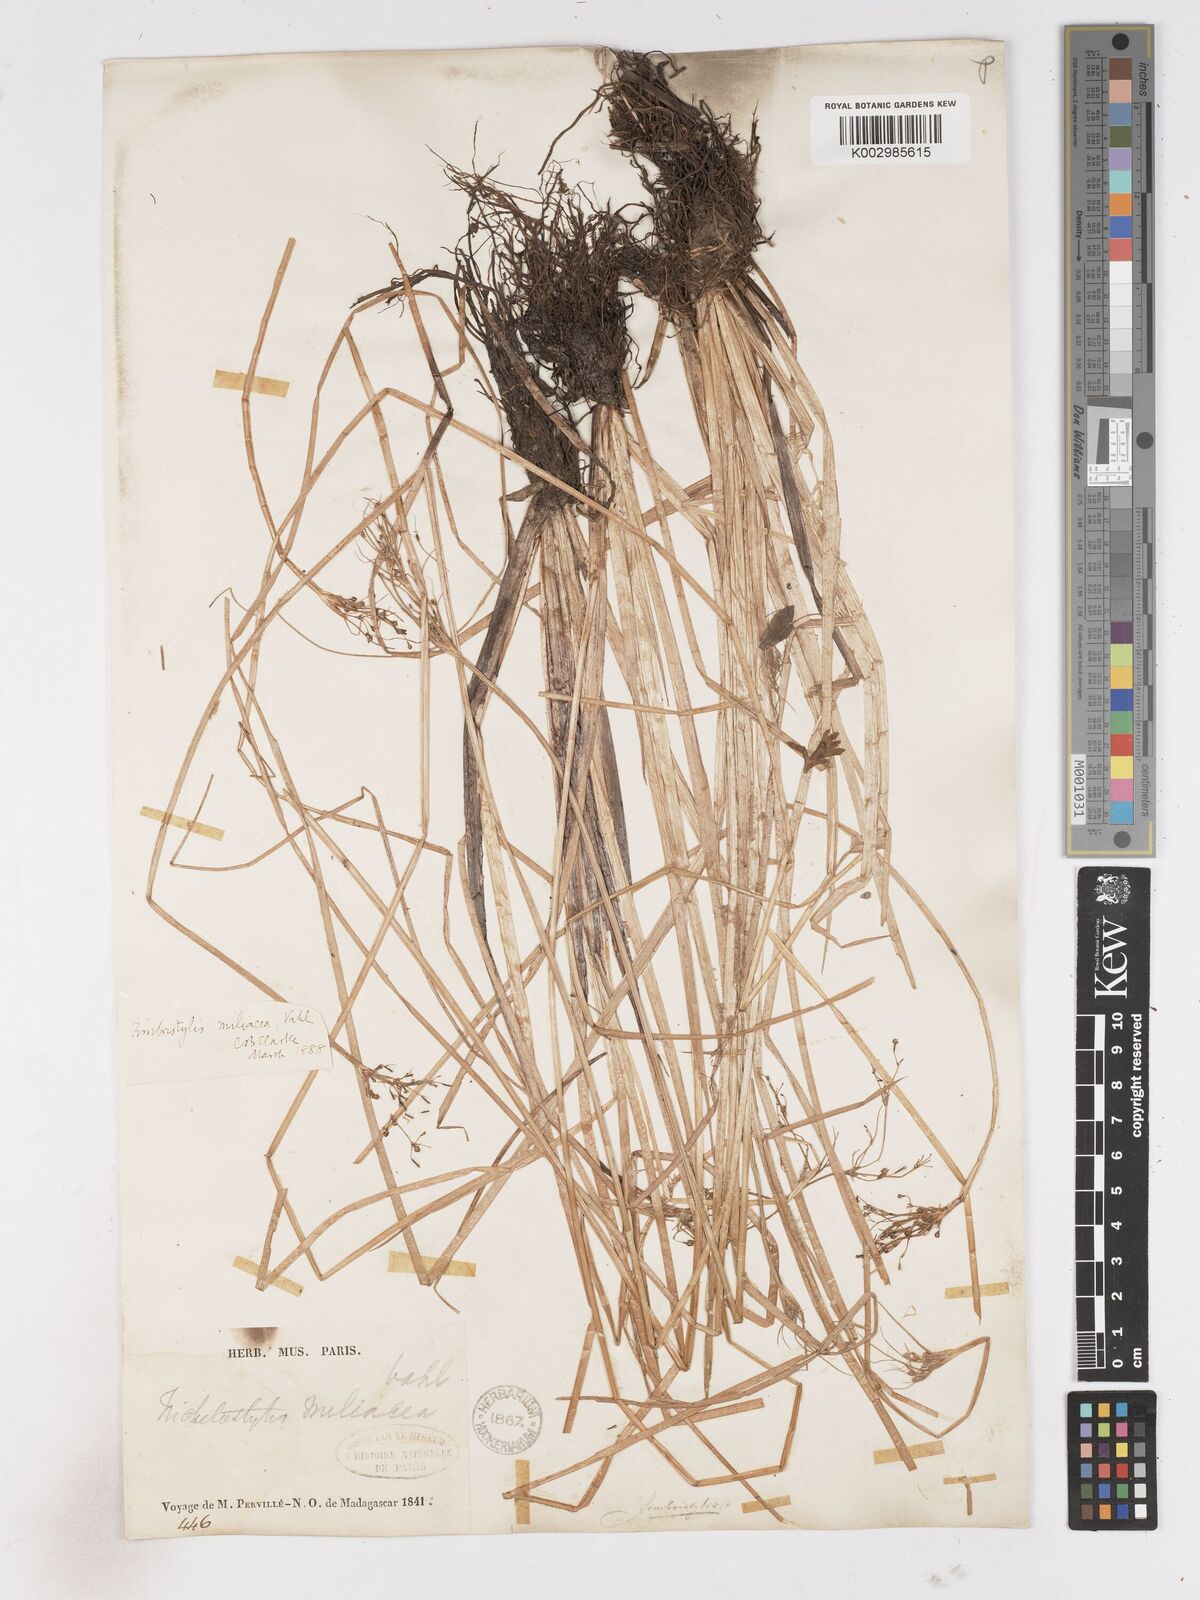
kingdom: Plantae
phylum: Tracheophyta
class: Liliopsida
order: Poales
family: Cyperaceae
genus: Fimbristylis
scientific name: Fimbristylis littoralis
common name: Fimbry
